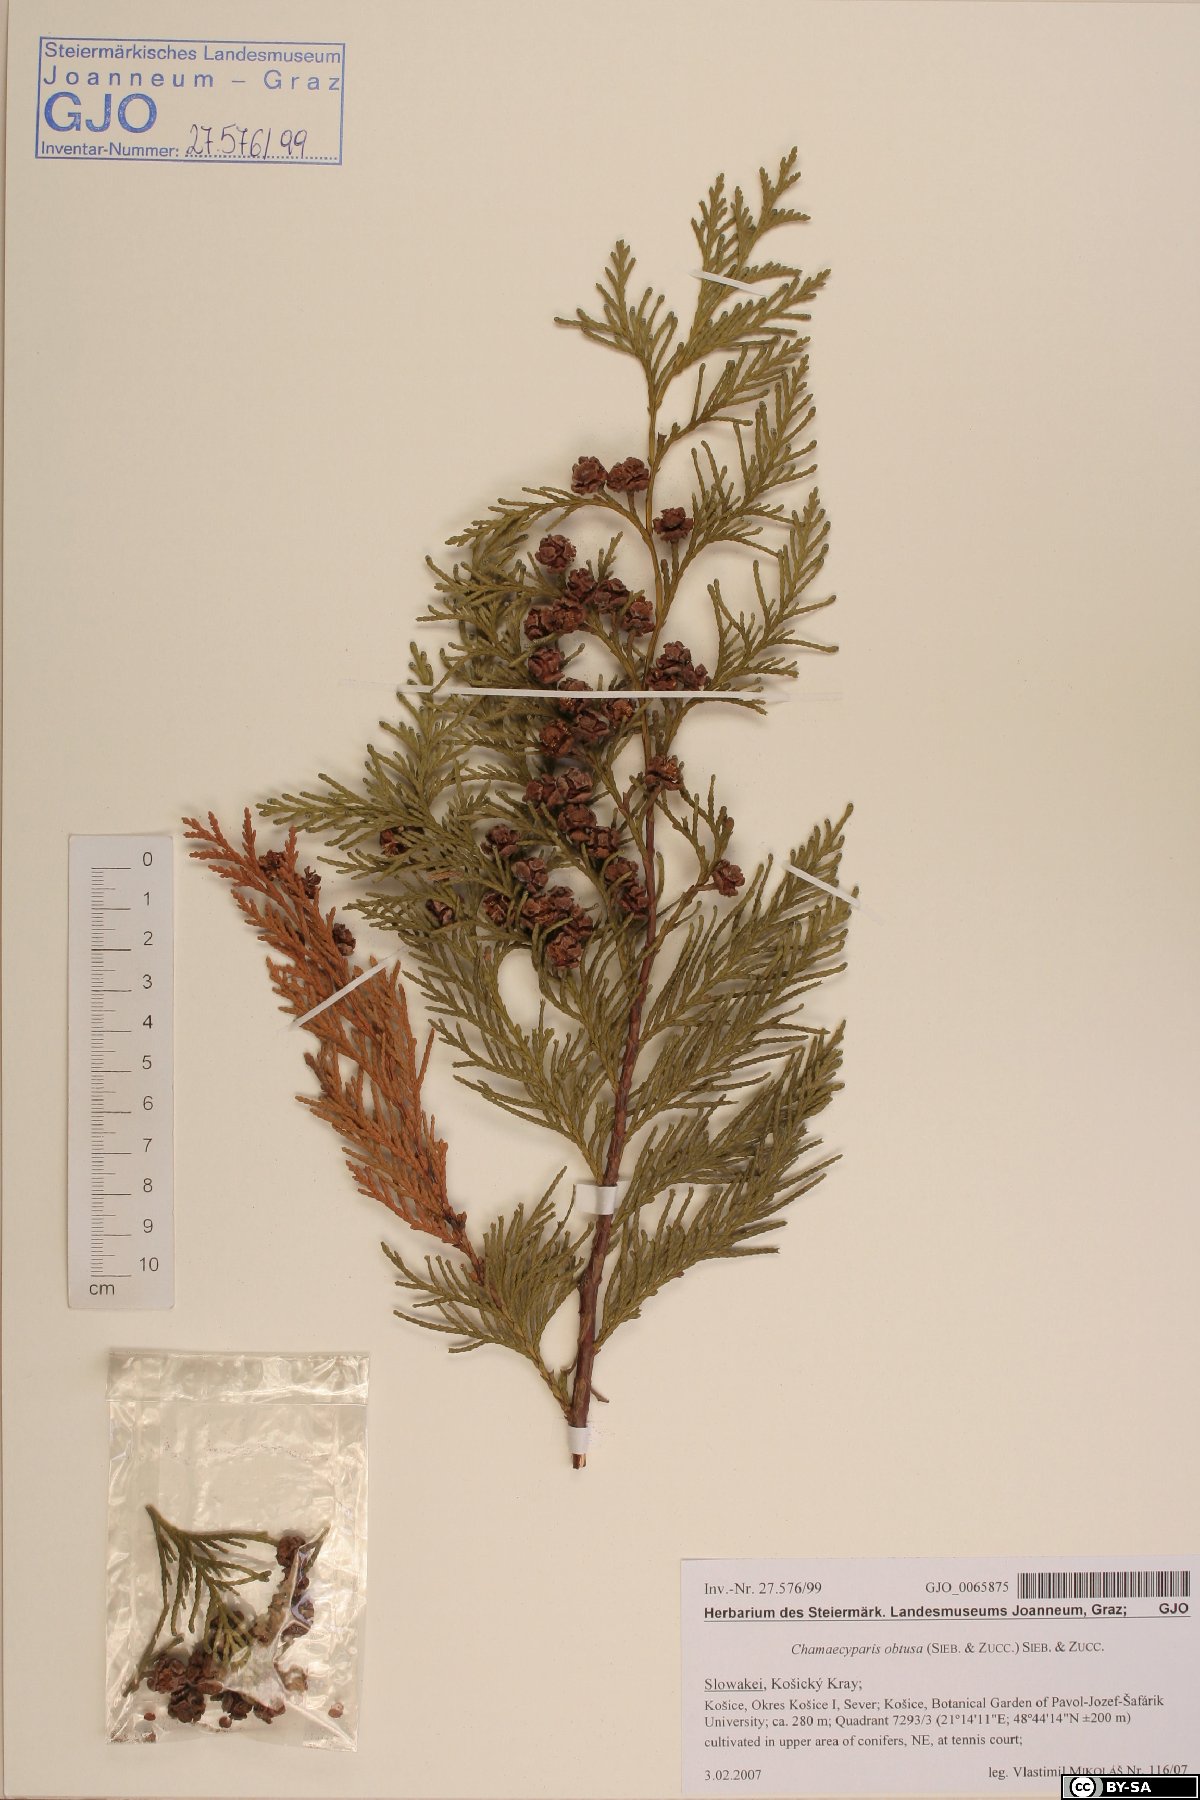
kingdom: Plantae
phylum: Tracheophyta
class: Pinopsida
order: Pinales
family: Cupressaceae
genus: Chamaecyparis
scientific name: Chamaecyparis obtusa
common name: Hinoki false cypress
